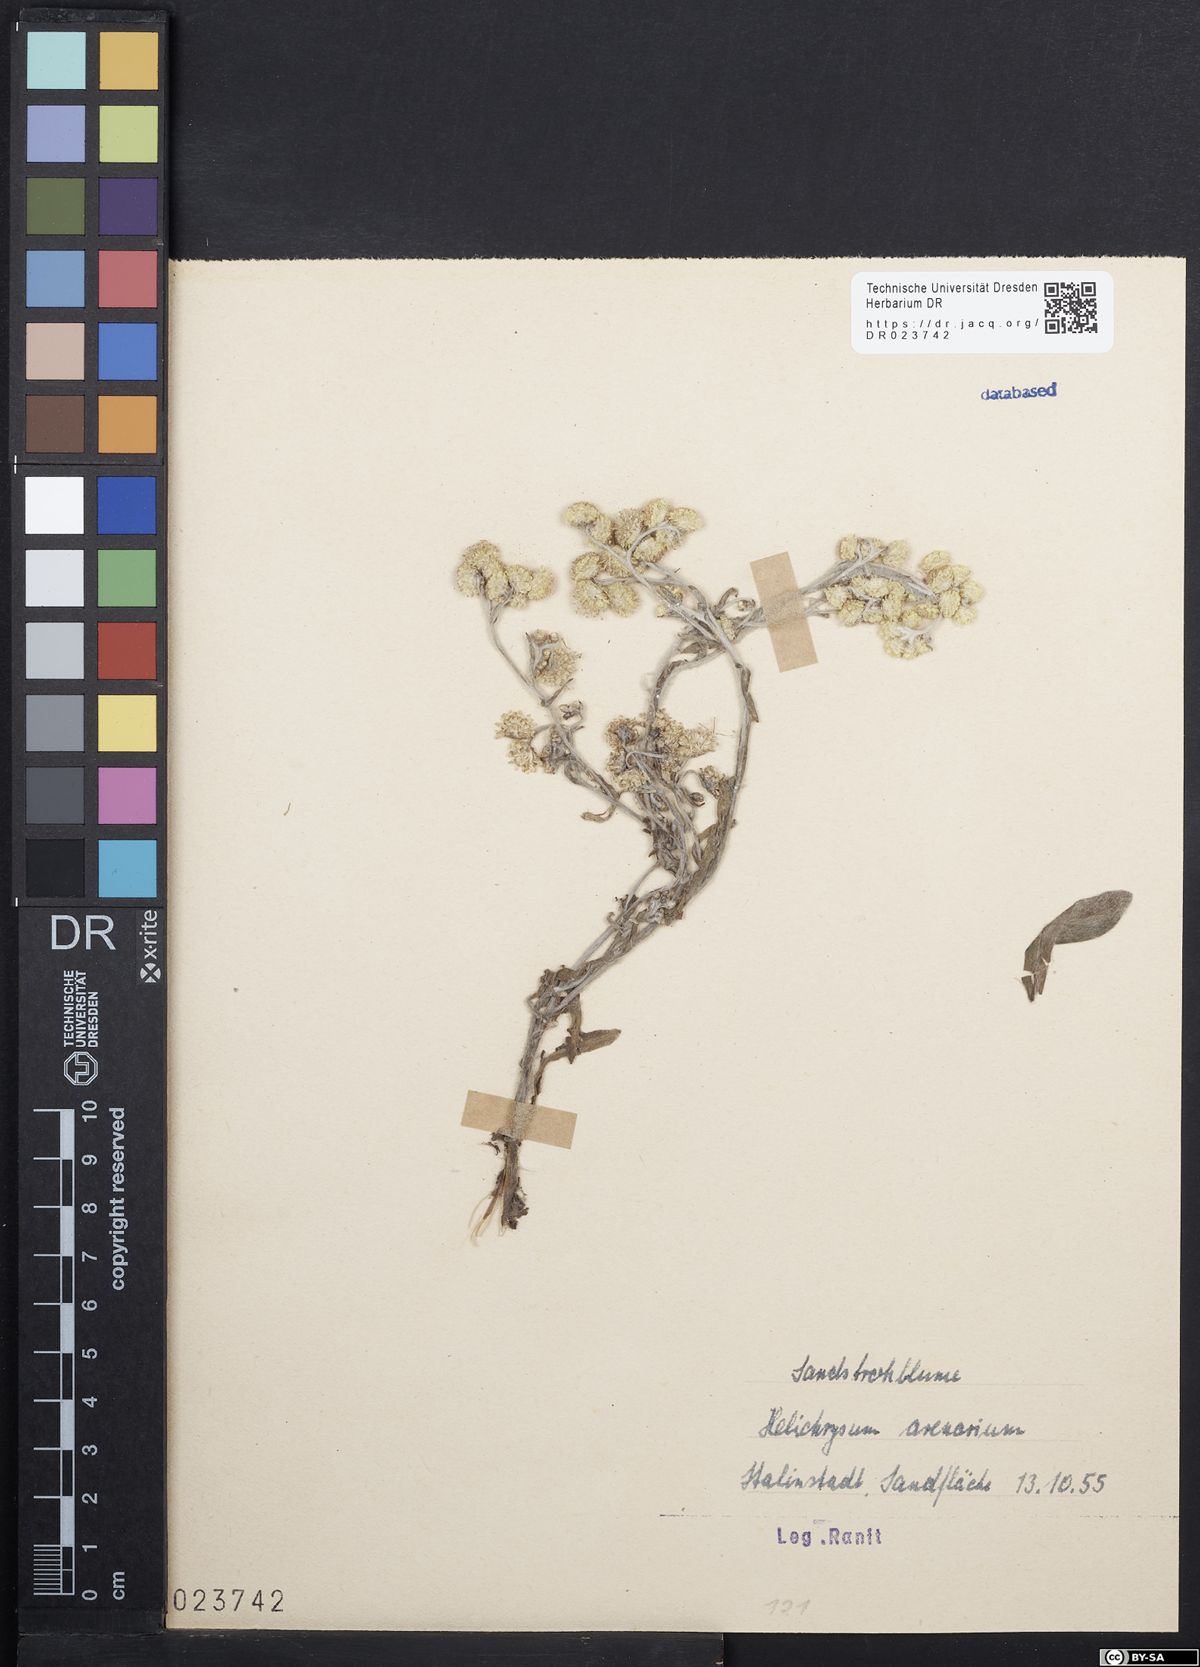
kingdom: Plantae
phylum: Tracheophyta
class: Magnoliopsida
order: Asterales
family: Asteraceae
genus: Helichrysum
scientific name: Helichrysum arenarium
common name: Strawflower
